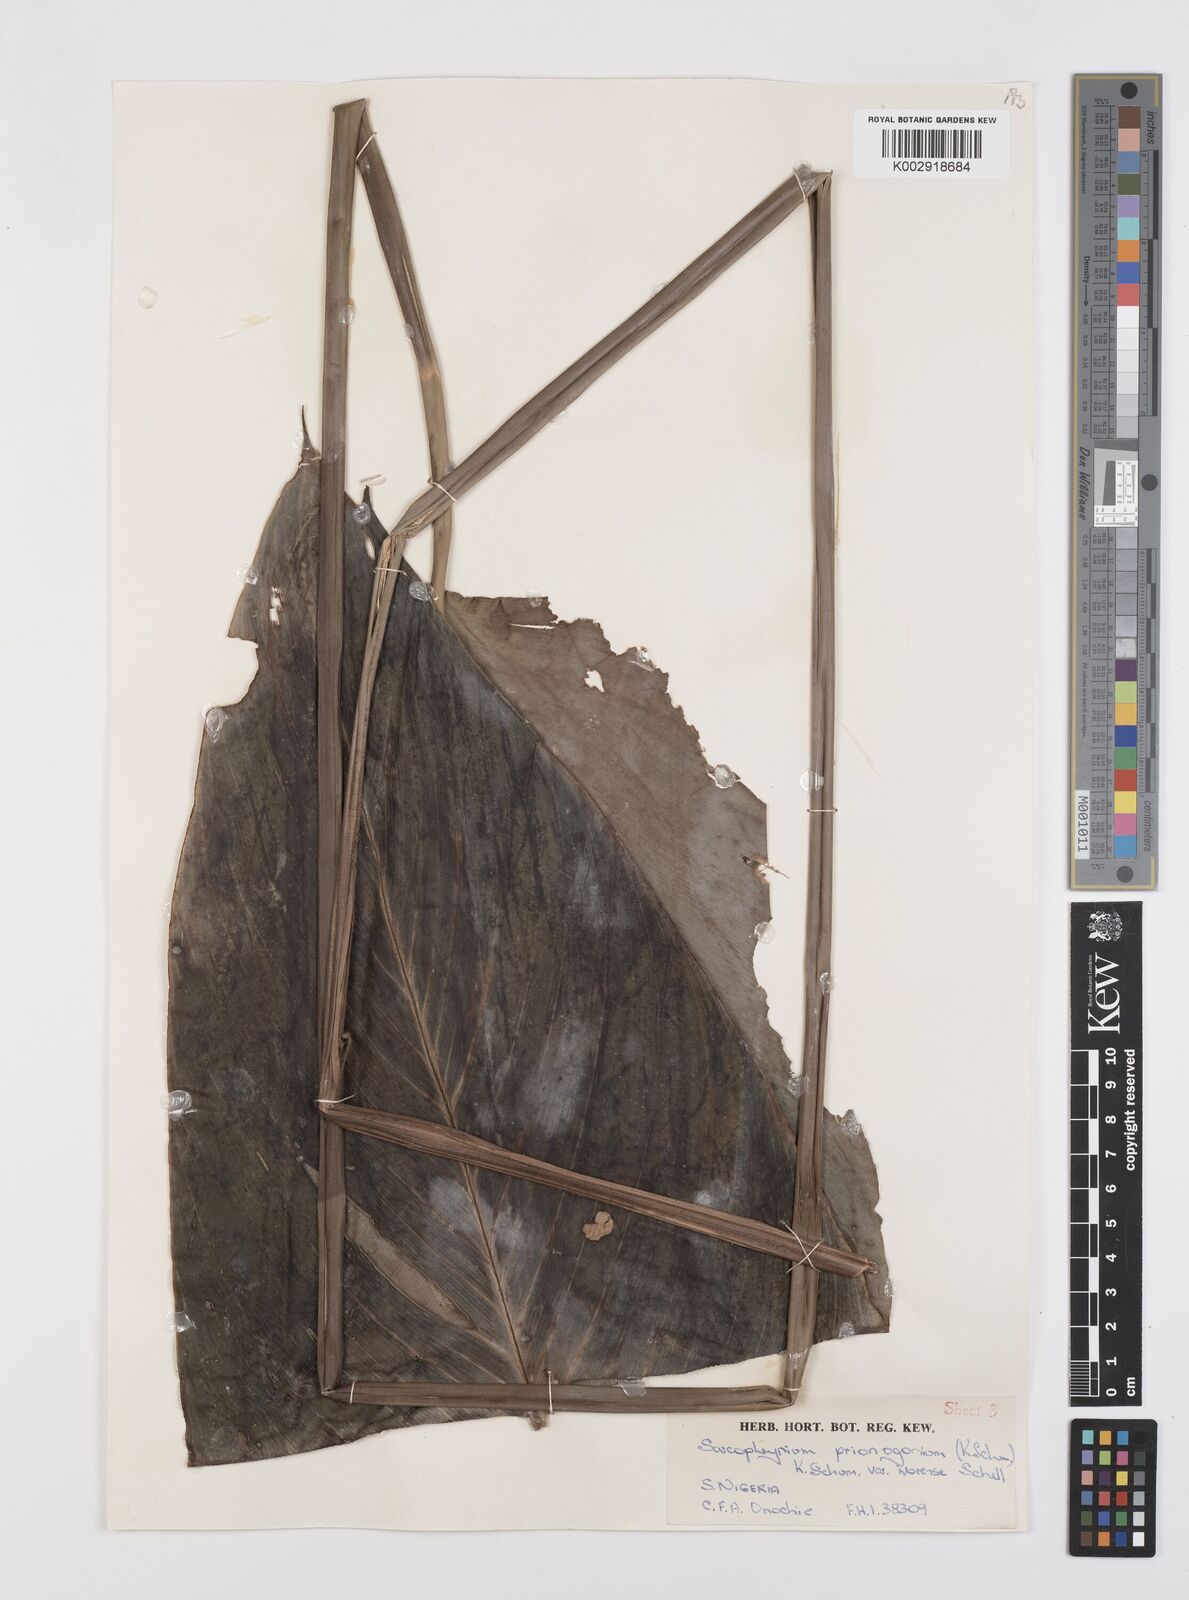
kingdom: Plantae
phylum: Tracheophyta
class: Liliopsida
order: Zingiberales
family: Marantaceae
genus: Sarcophrynium
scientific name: Sarcophrynium prionogonium
